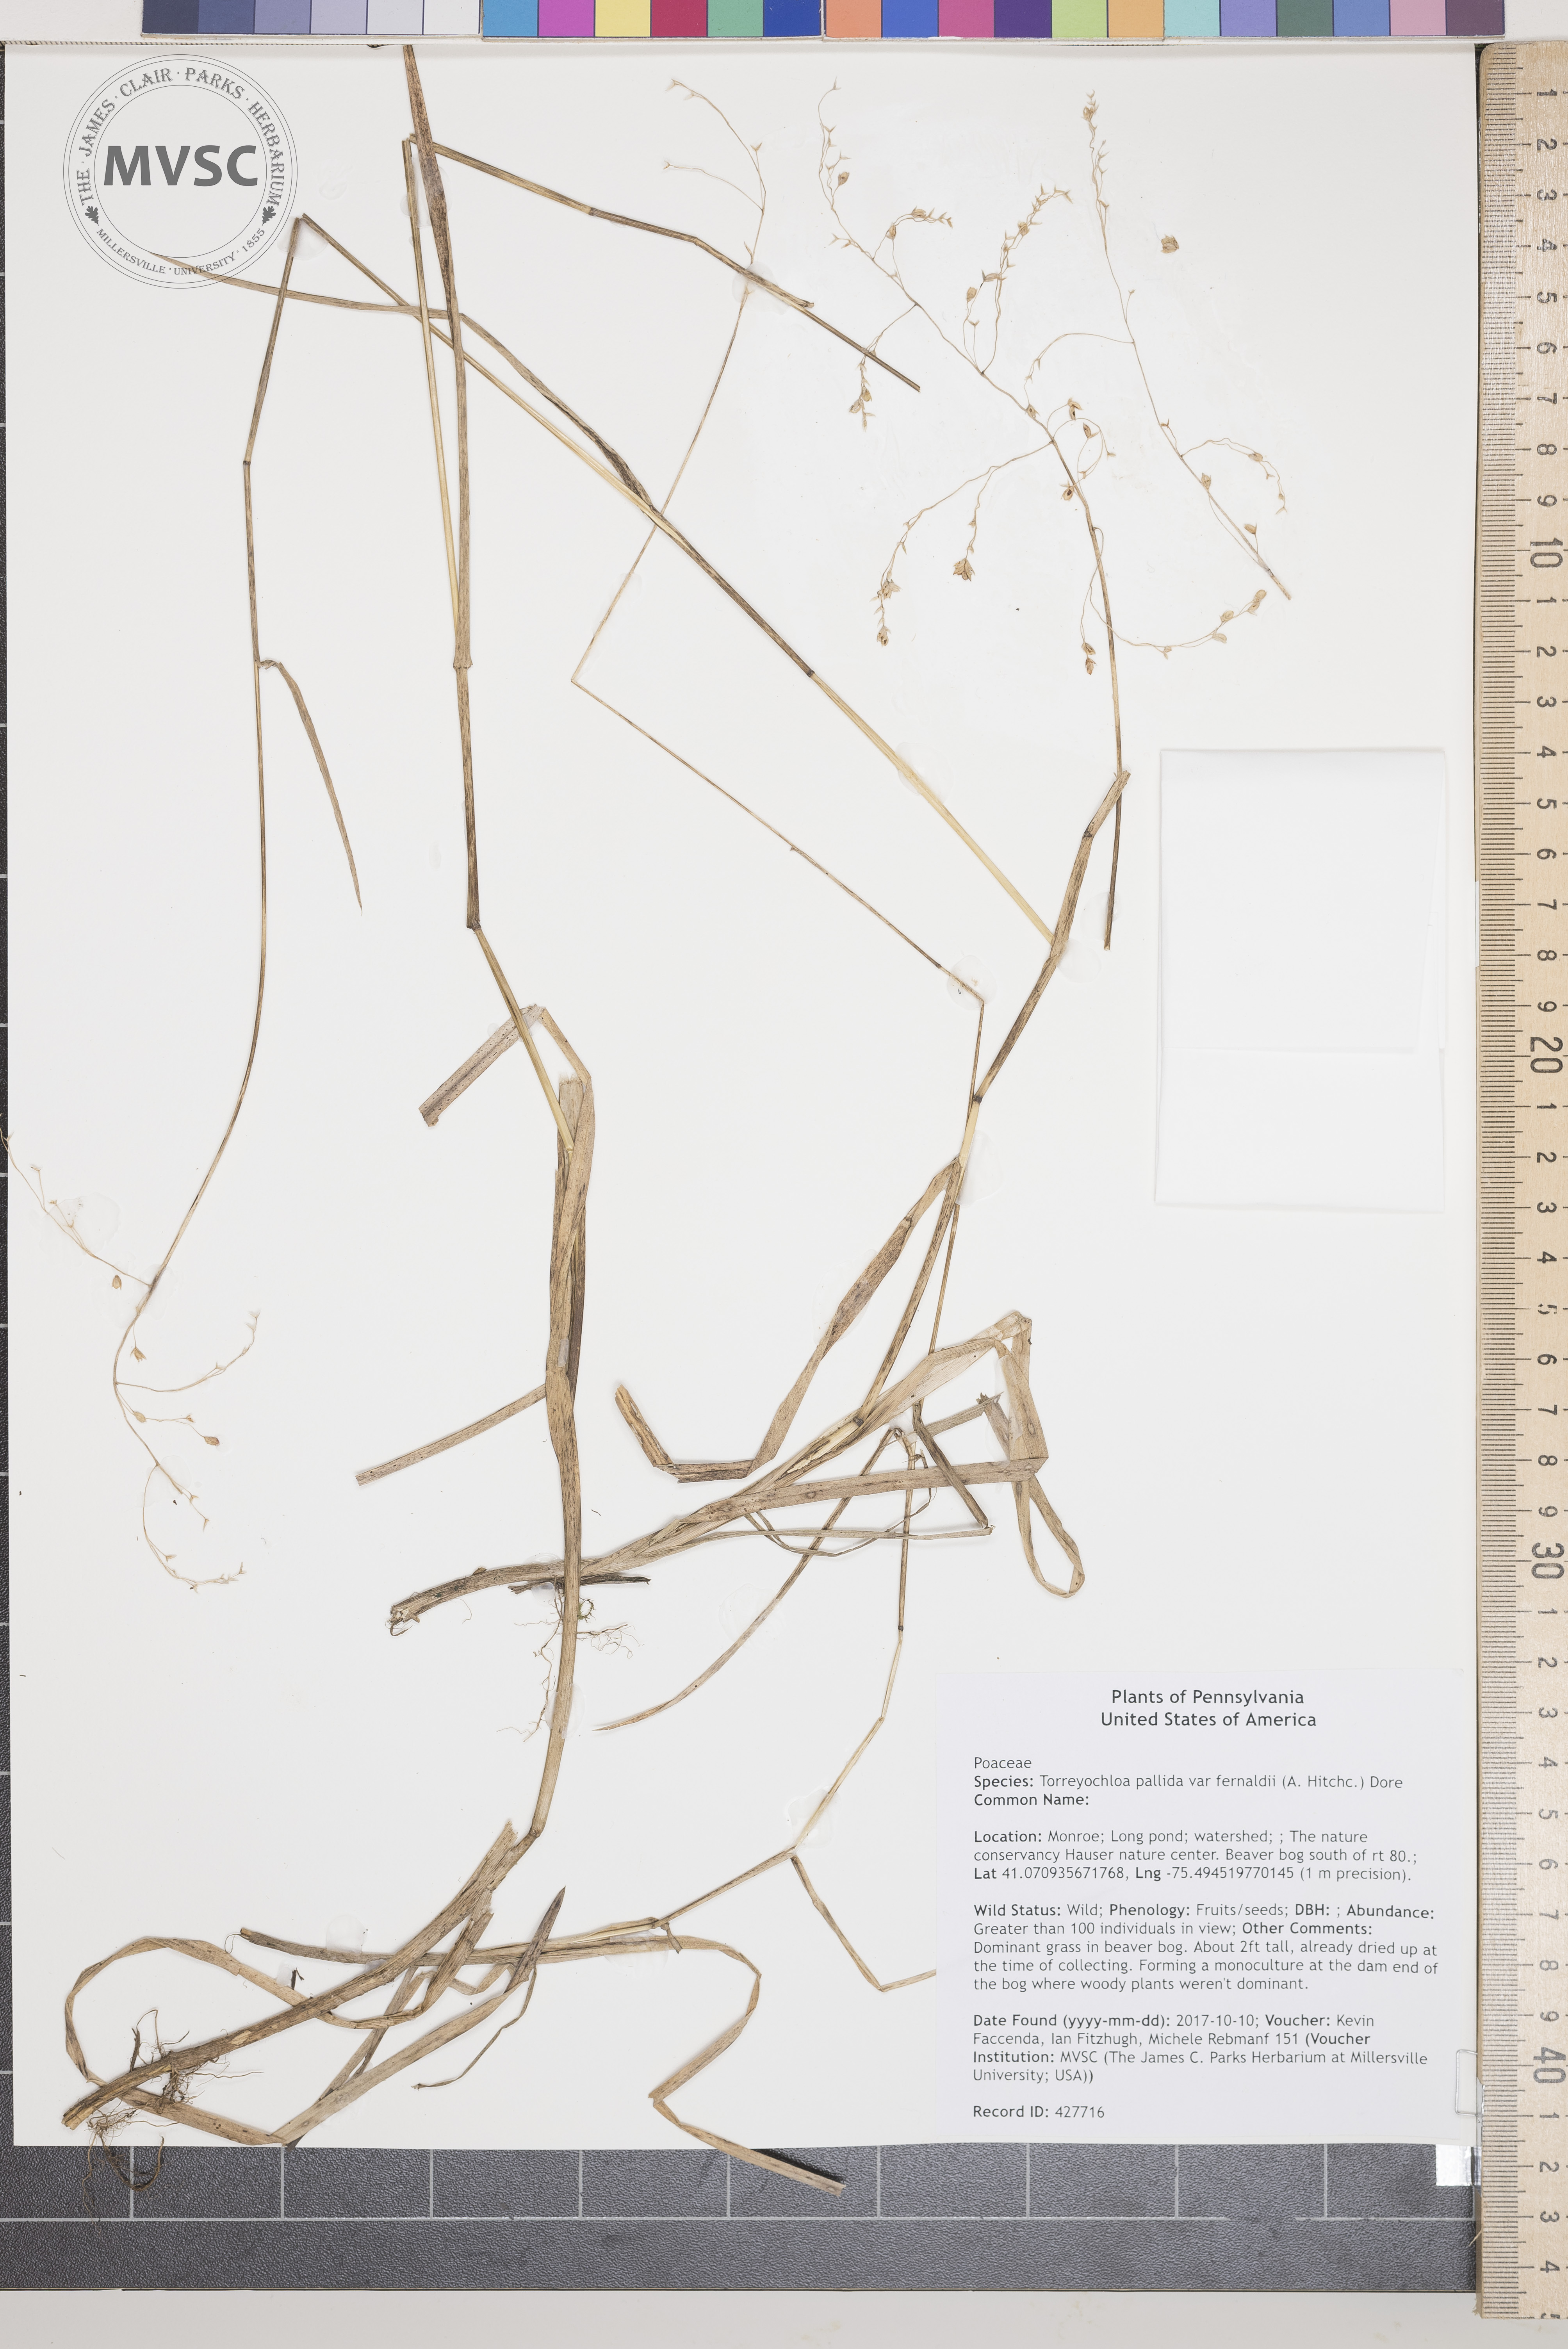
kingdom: Plantae
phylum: Tracheophyta
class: Liliopsida
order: Poales
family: Poaceae
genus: Torreyochloa
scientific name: Torreyochloa pallida
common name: Pale false mannagrass
